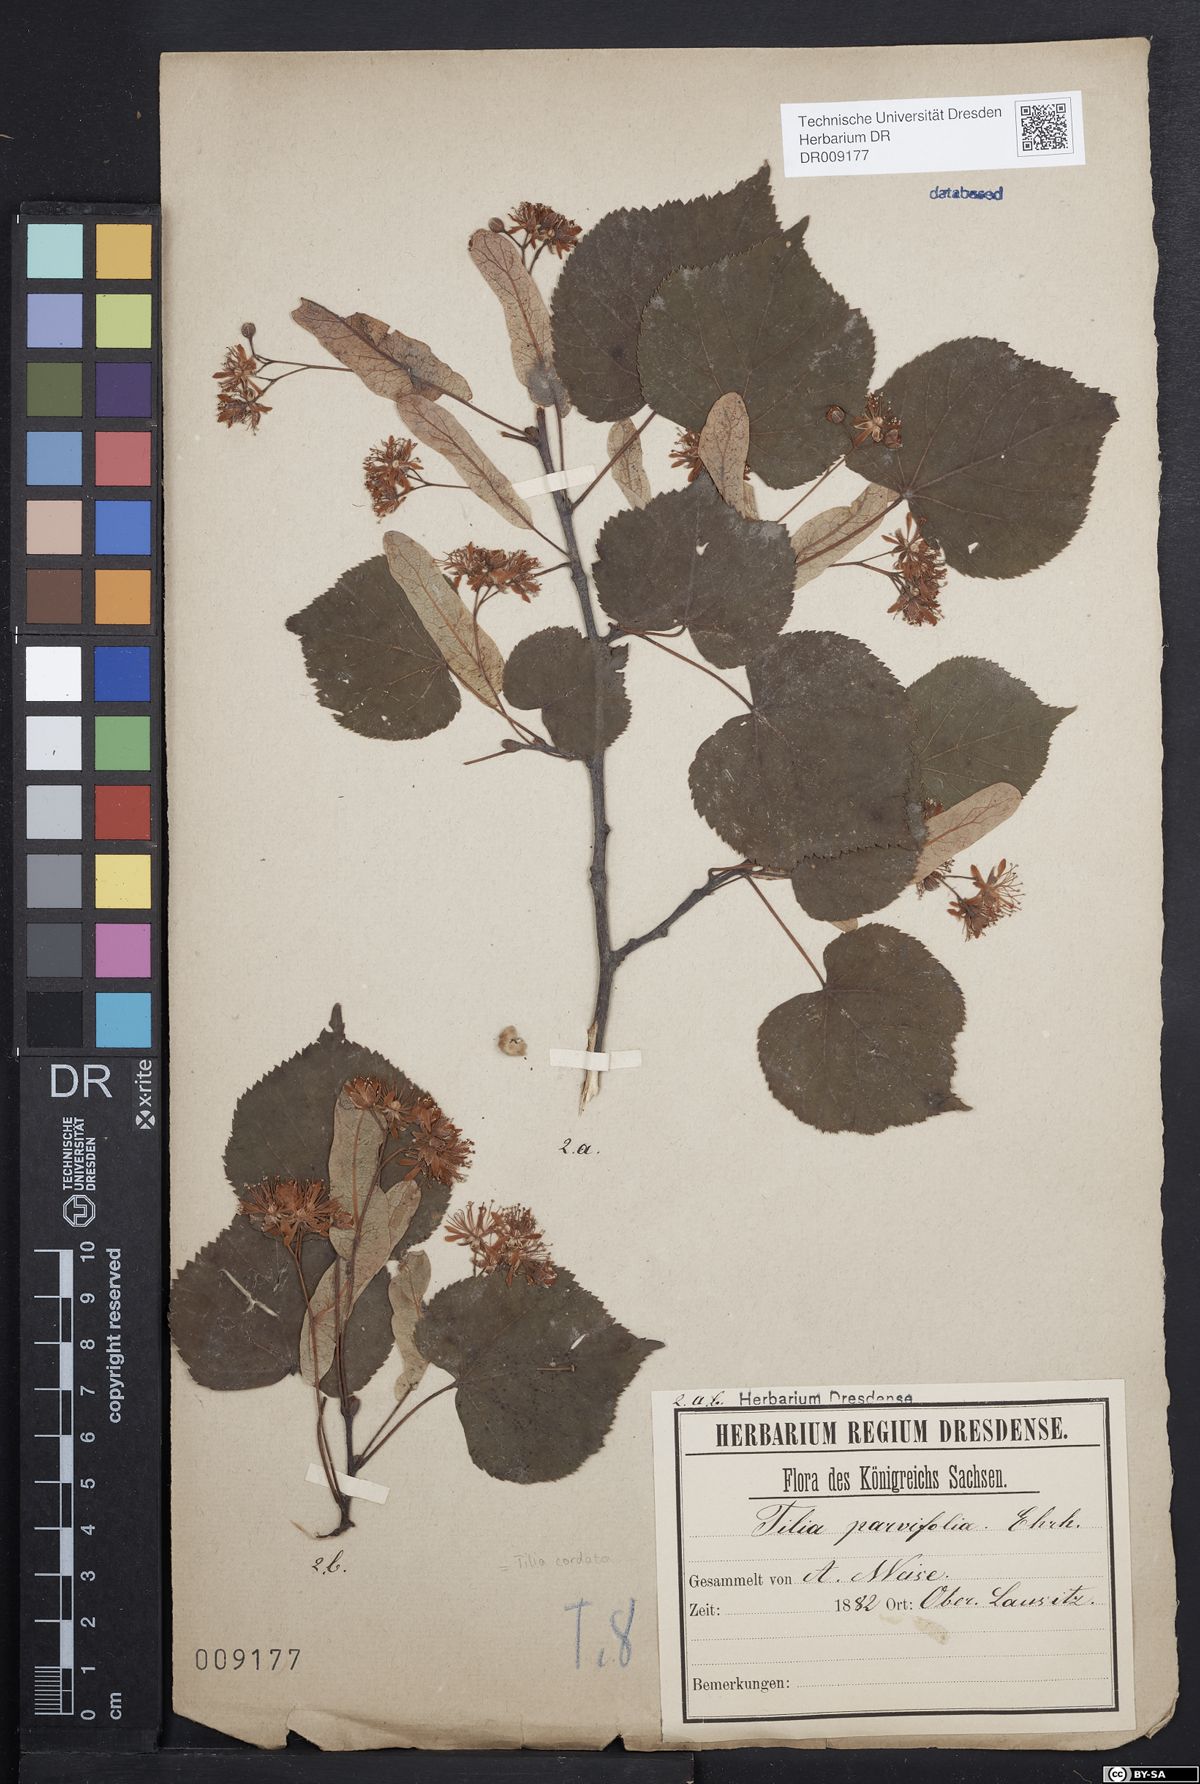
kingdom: Plantae
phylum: Tracheophyta
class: Magnoliopsida
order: Malvales
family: Malvaceae
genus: Tilia
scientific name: Tilia cordata
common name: Small-leaved lime
